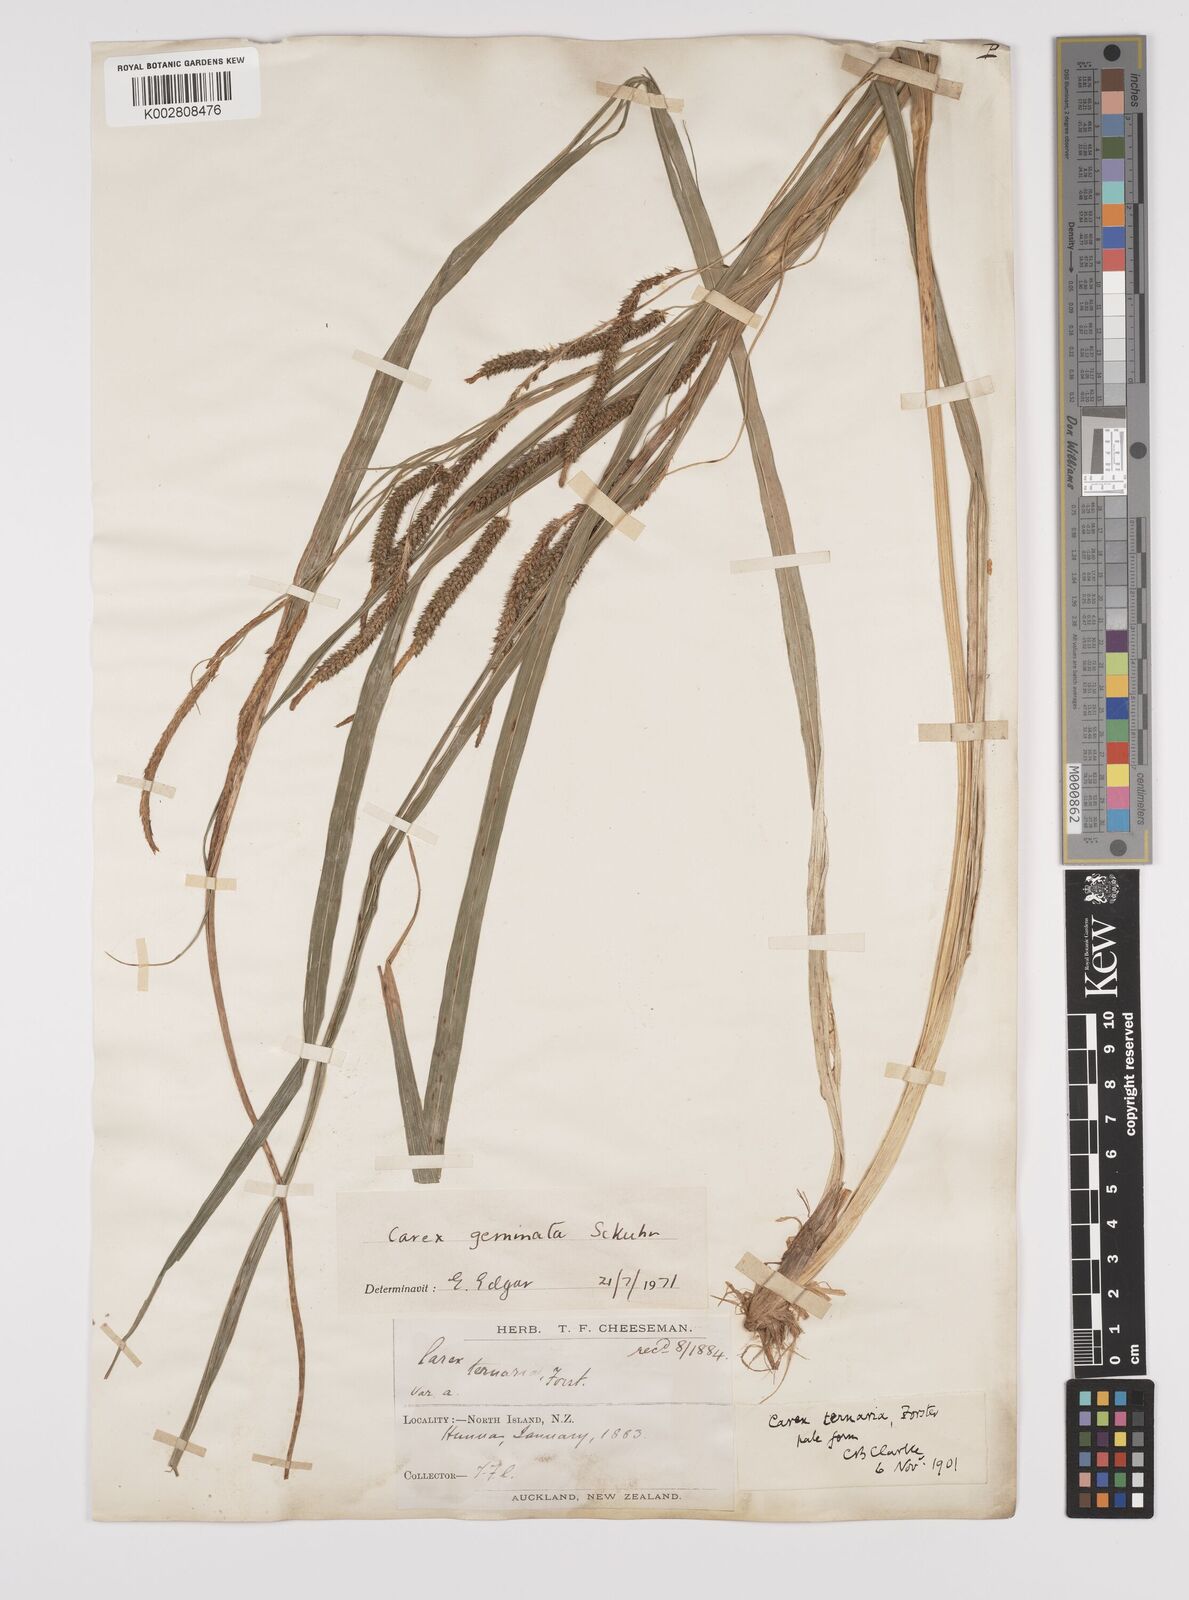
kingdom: Plantae
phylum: Tracheophyta
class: Liliopsida
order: Poales
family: Cyperaceae
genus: Carex
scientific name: Carex geminata
